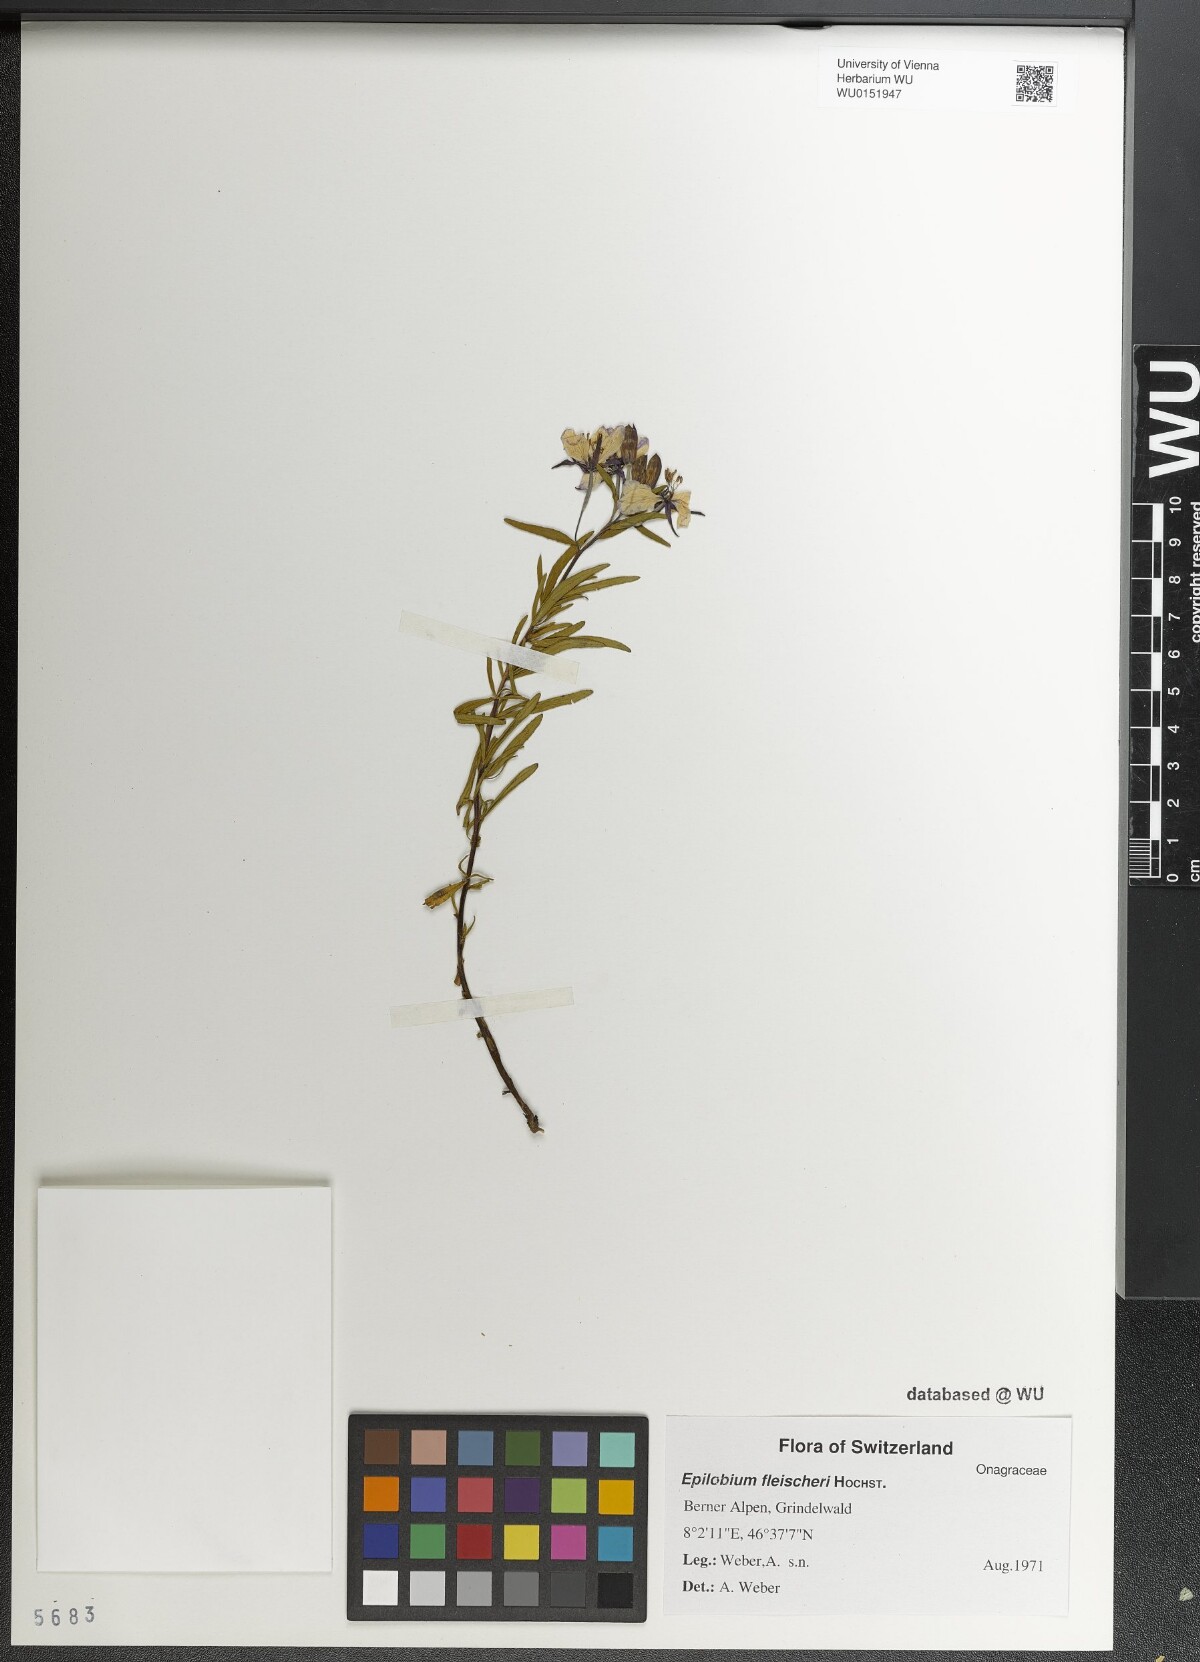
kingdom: Plantae
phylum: Tracheophyta
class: Magnoliopsida
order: Myrtales
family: Onagraceae
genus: Chamaenerion
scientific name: Chamaenerion fleischeri
